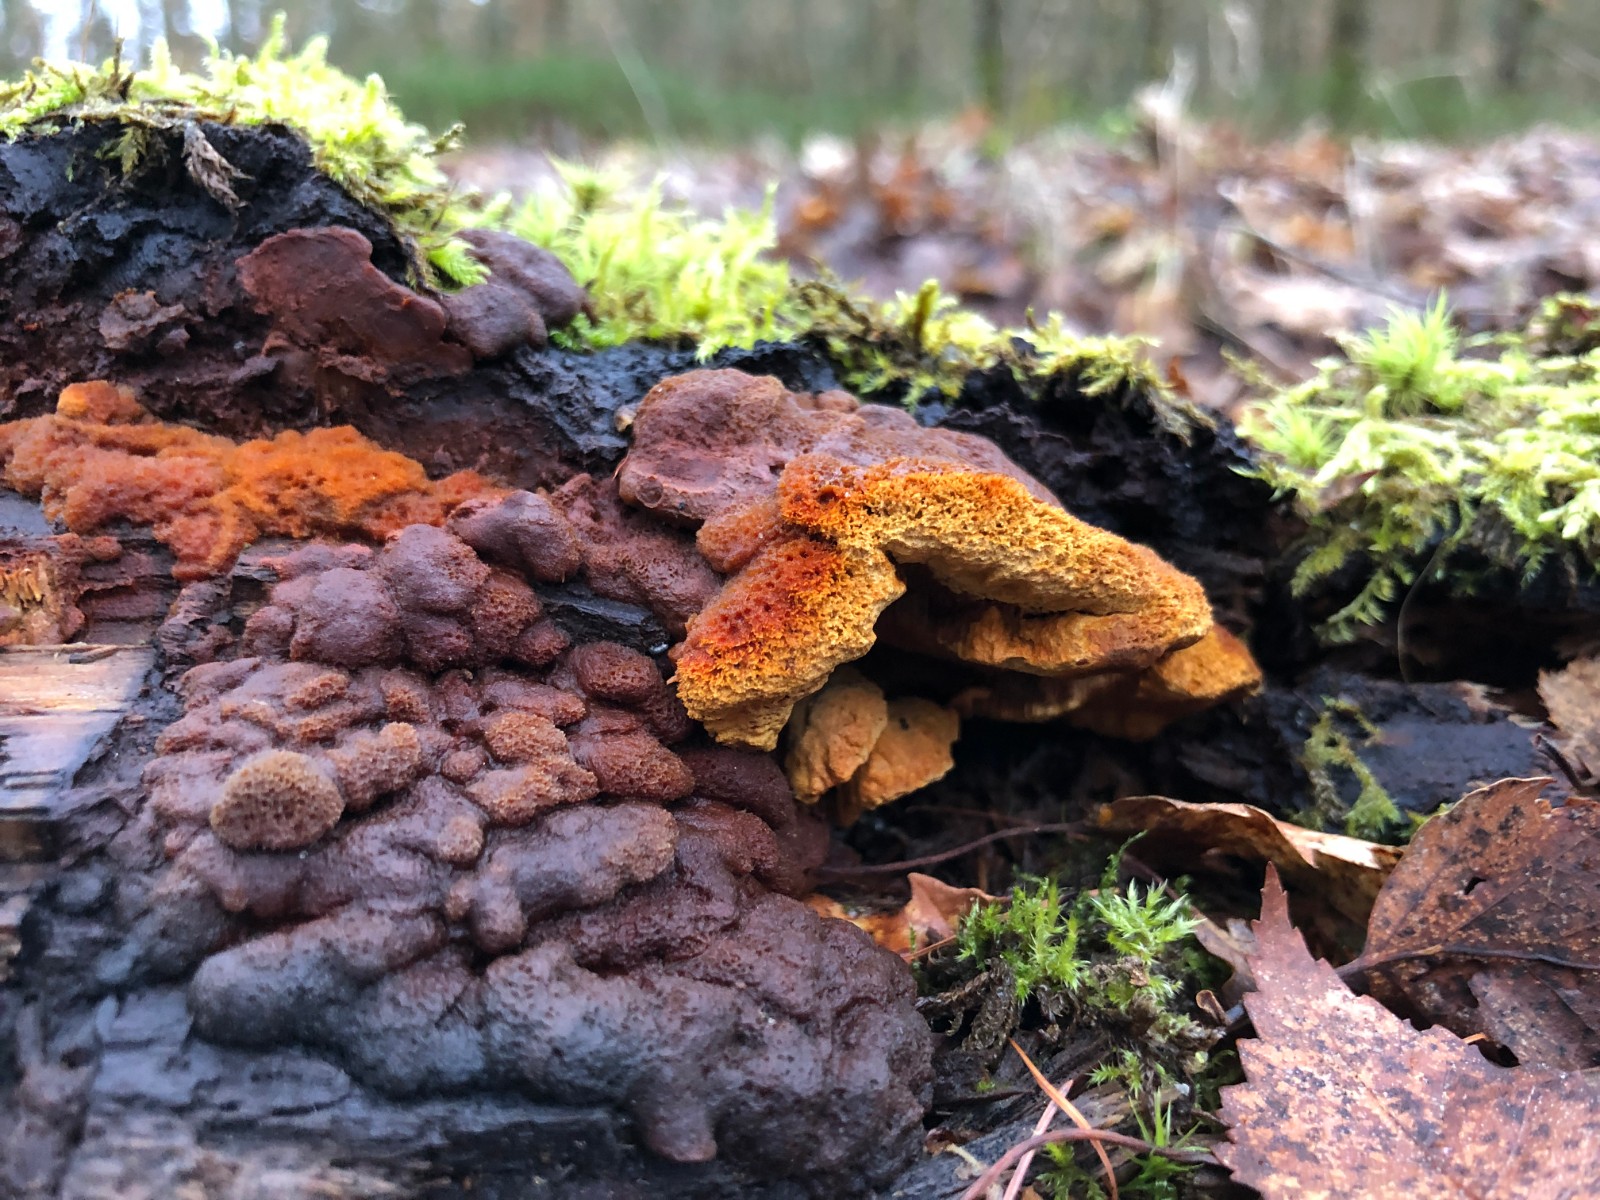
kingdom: Fungi
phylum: Basidiomycota
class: Agaricomycetes
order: Gloeophyllales
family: Gloeophyllaceae
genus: Gloeophyllum
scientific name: Gloeophyllum odoratum
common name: duftende korkhat
